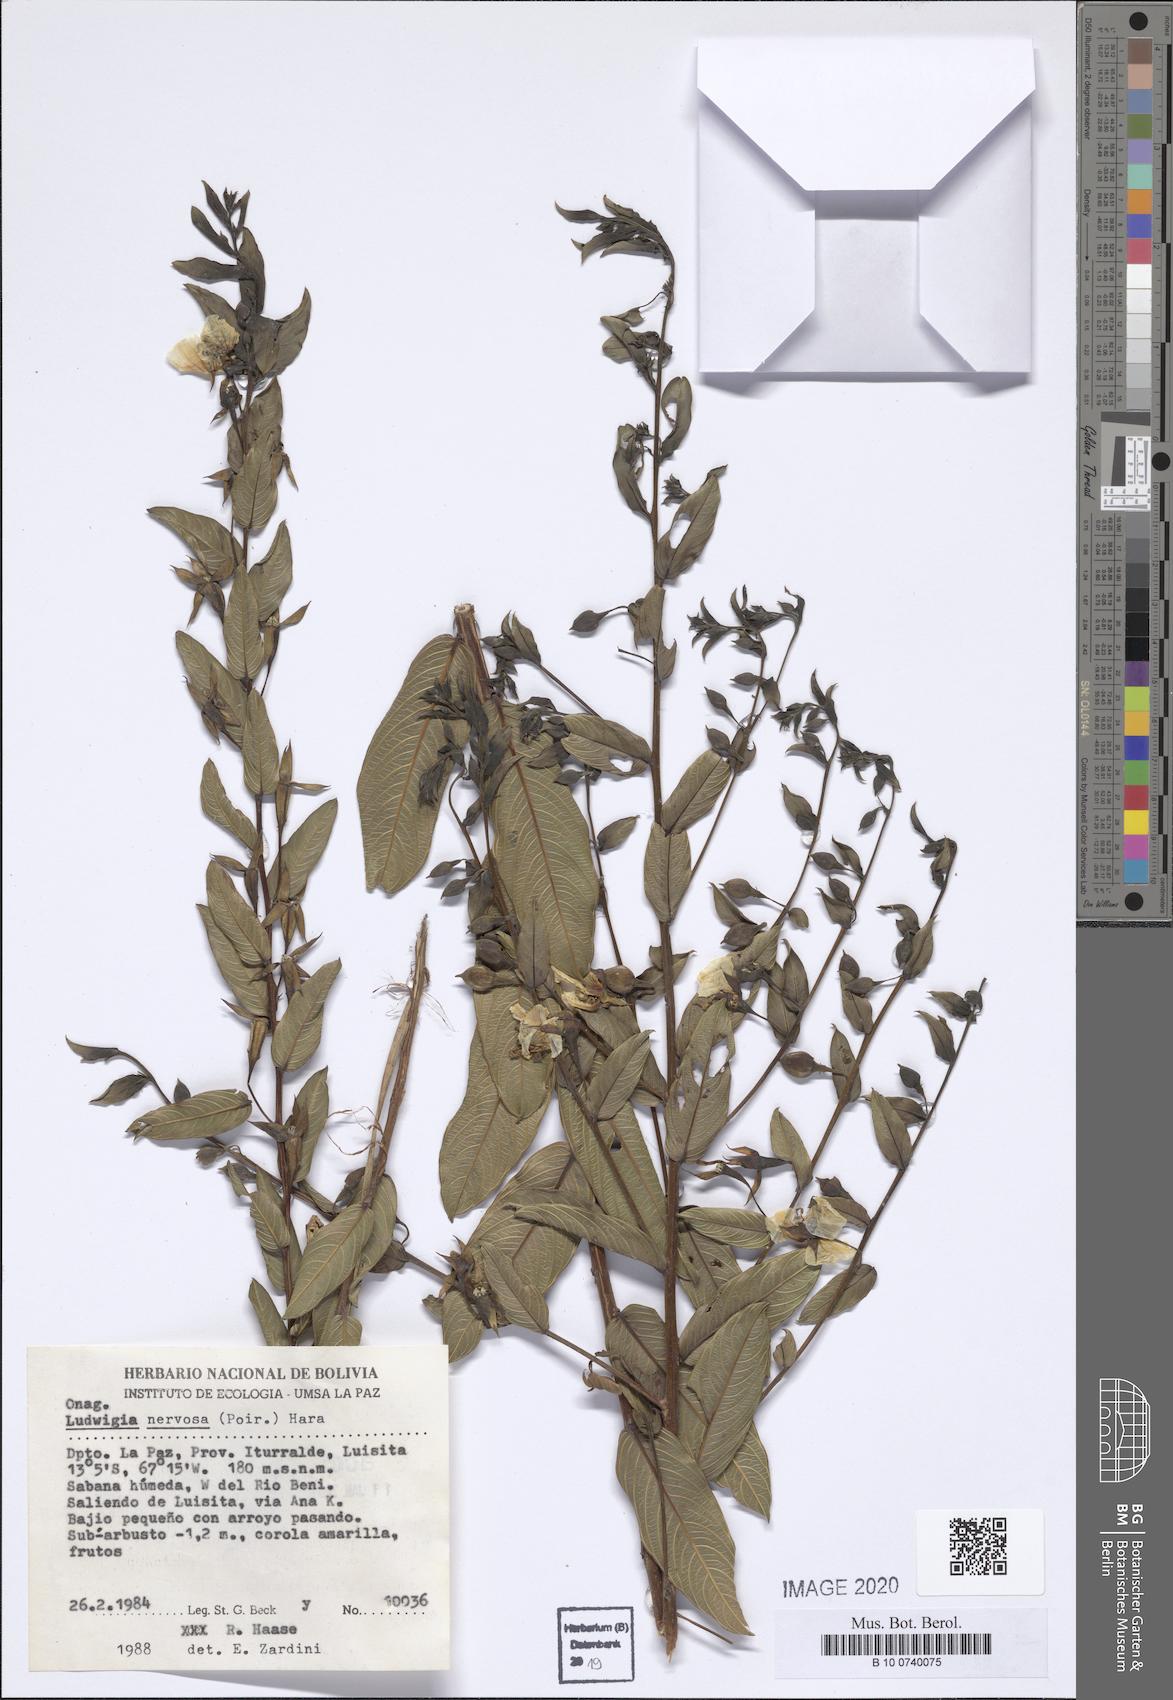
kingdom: Plantae
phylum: Tracheophyta
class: Magnoliopsida
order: Myrtales
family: Onagraceae
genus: Ludwigia
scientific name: Ludwigia nervosa
